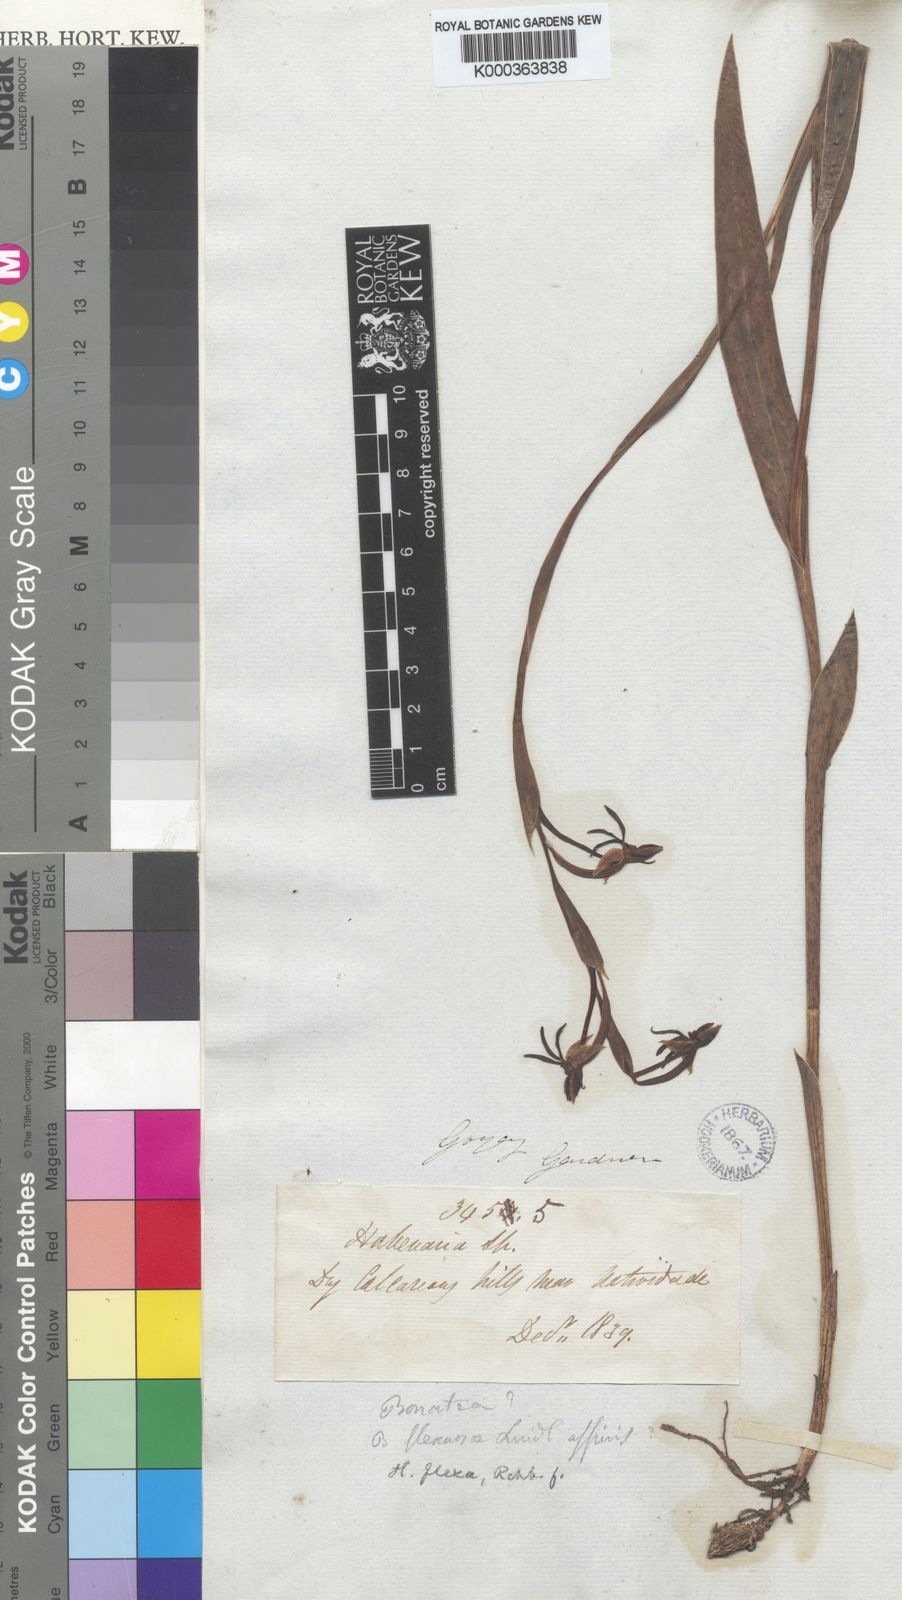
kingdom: Plantae
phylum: Tracheophyta
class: Liliopsida
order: Asparagales
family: Orchidaceae
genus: Habenaria
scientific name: Habenaria trifida
